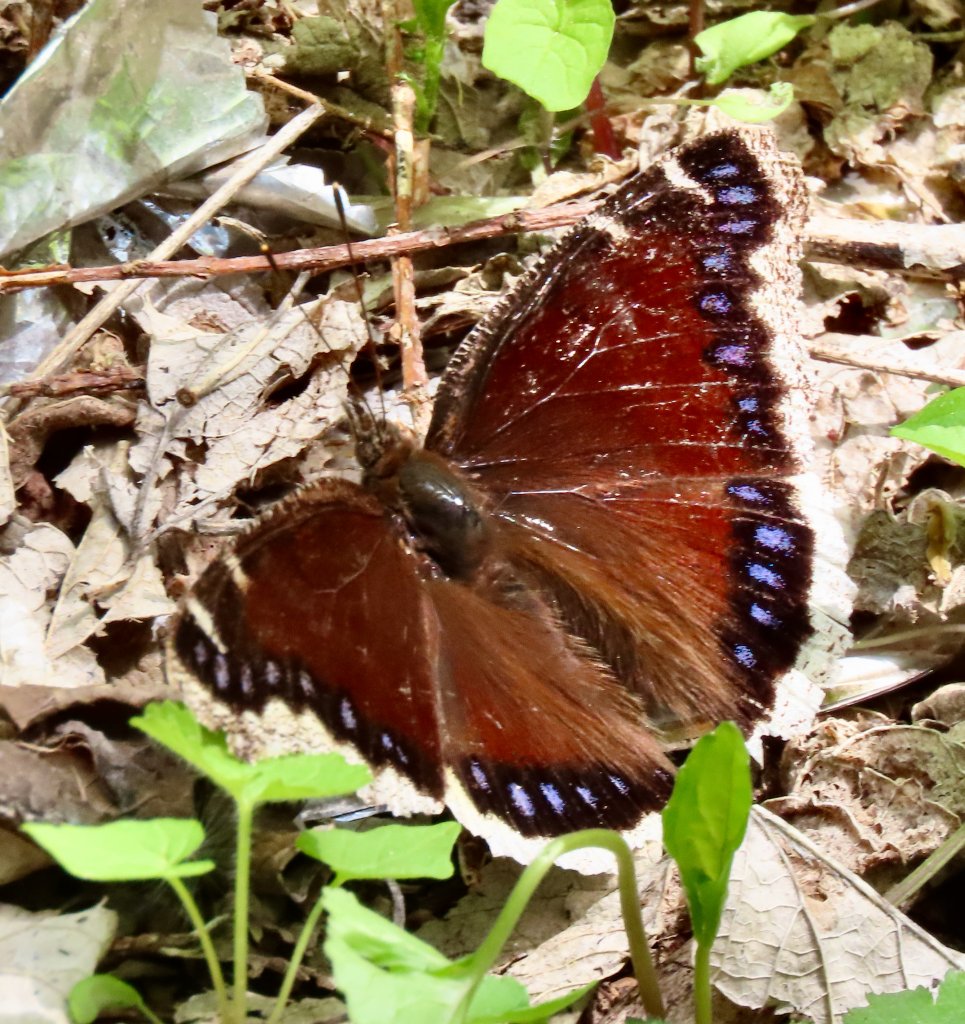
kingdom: Animalia
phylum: Arthropoda
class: Insecta
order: Lepidoptera
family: Nymphalidae
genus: Nymphalis
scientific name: Nymphalis antiopa
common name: Mourning Cloak
